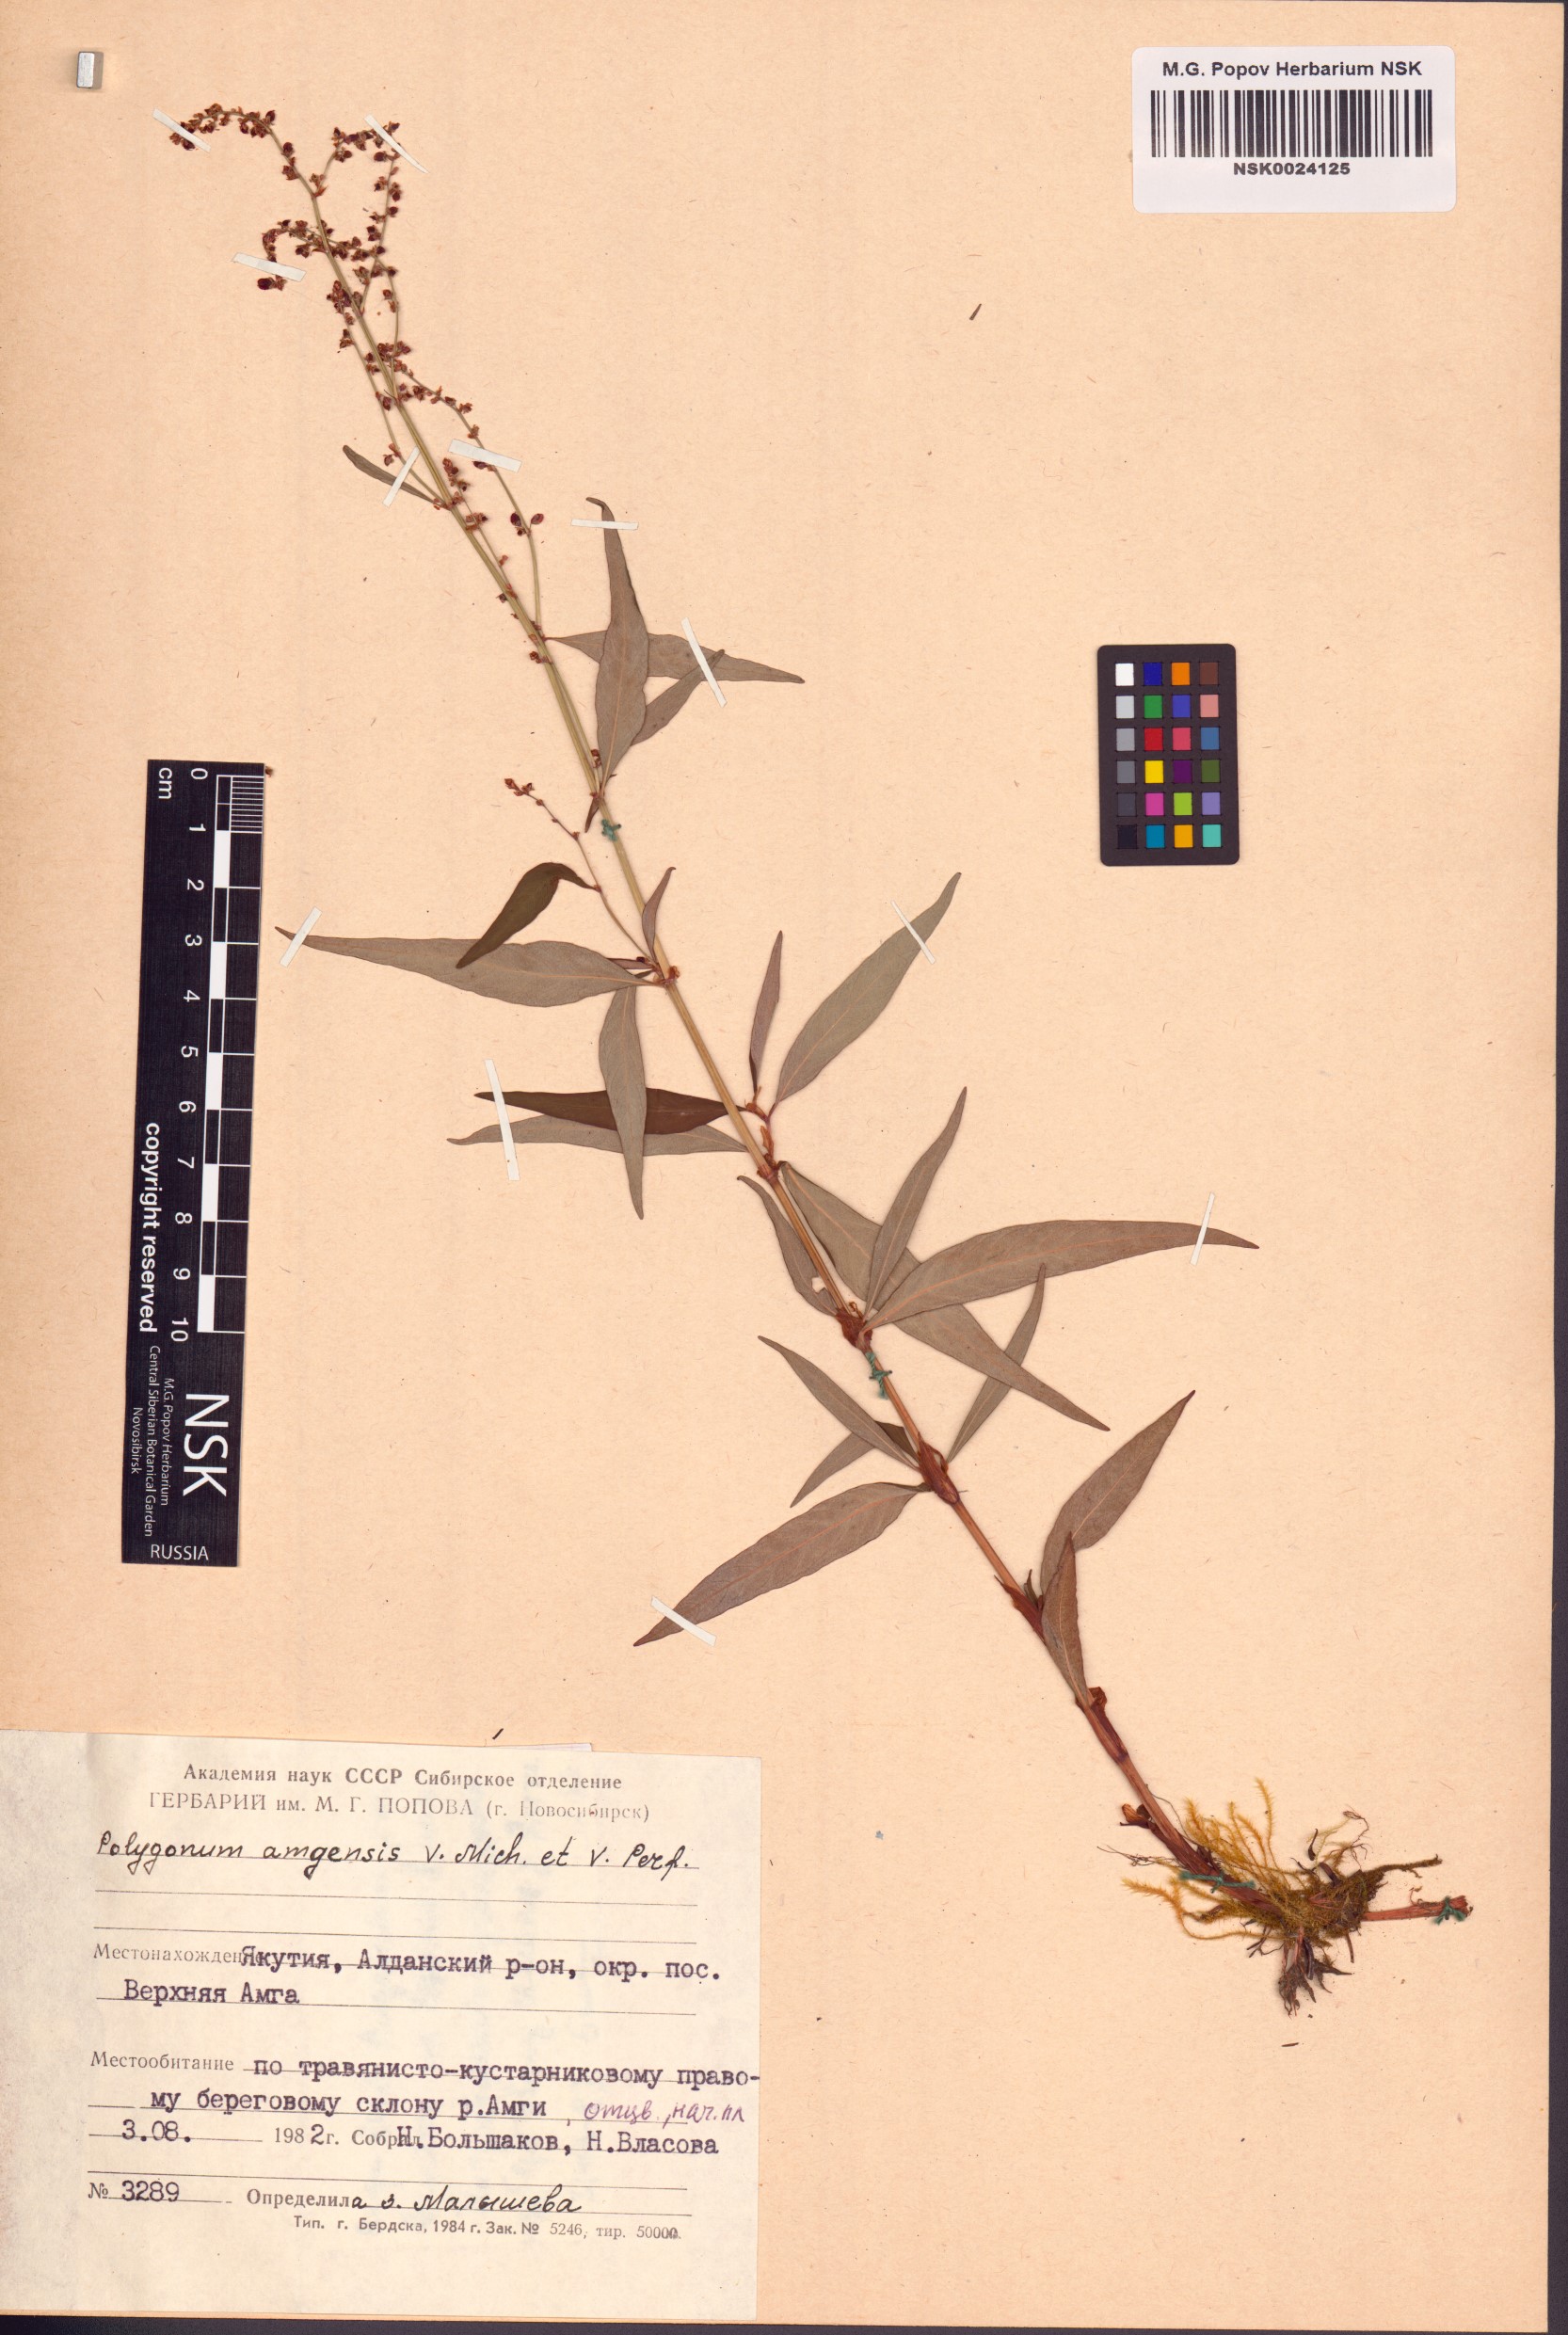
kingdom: Plantae
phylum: Tracheophyta
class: Magnoliopsida
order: Caryophyllales
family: Polygonaceae
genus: Polygonum
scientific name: Polygonum amgense
